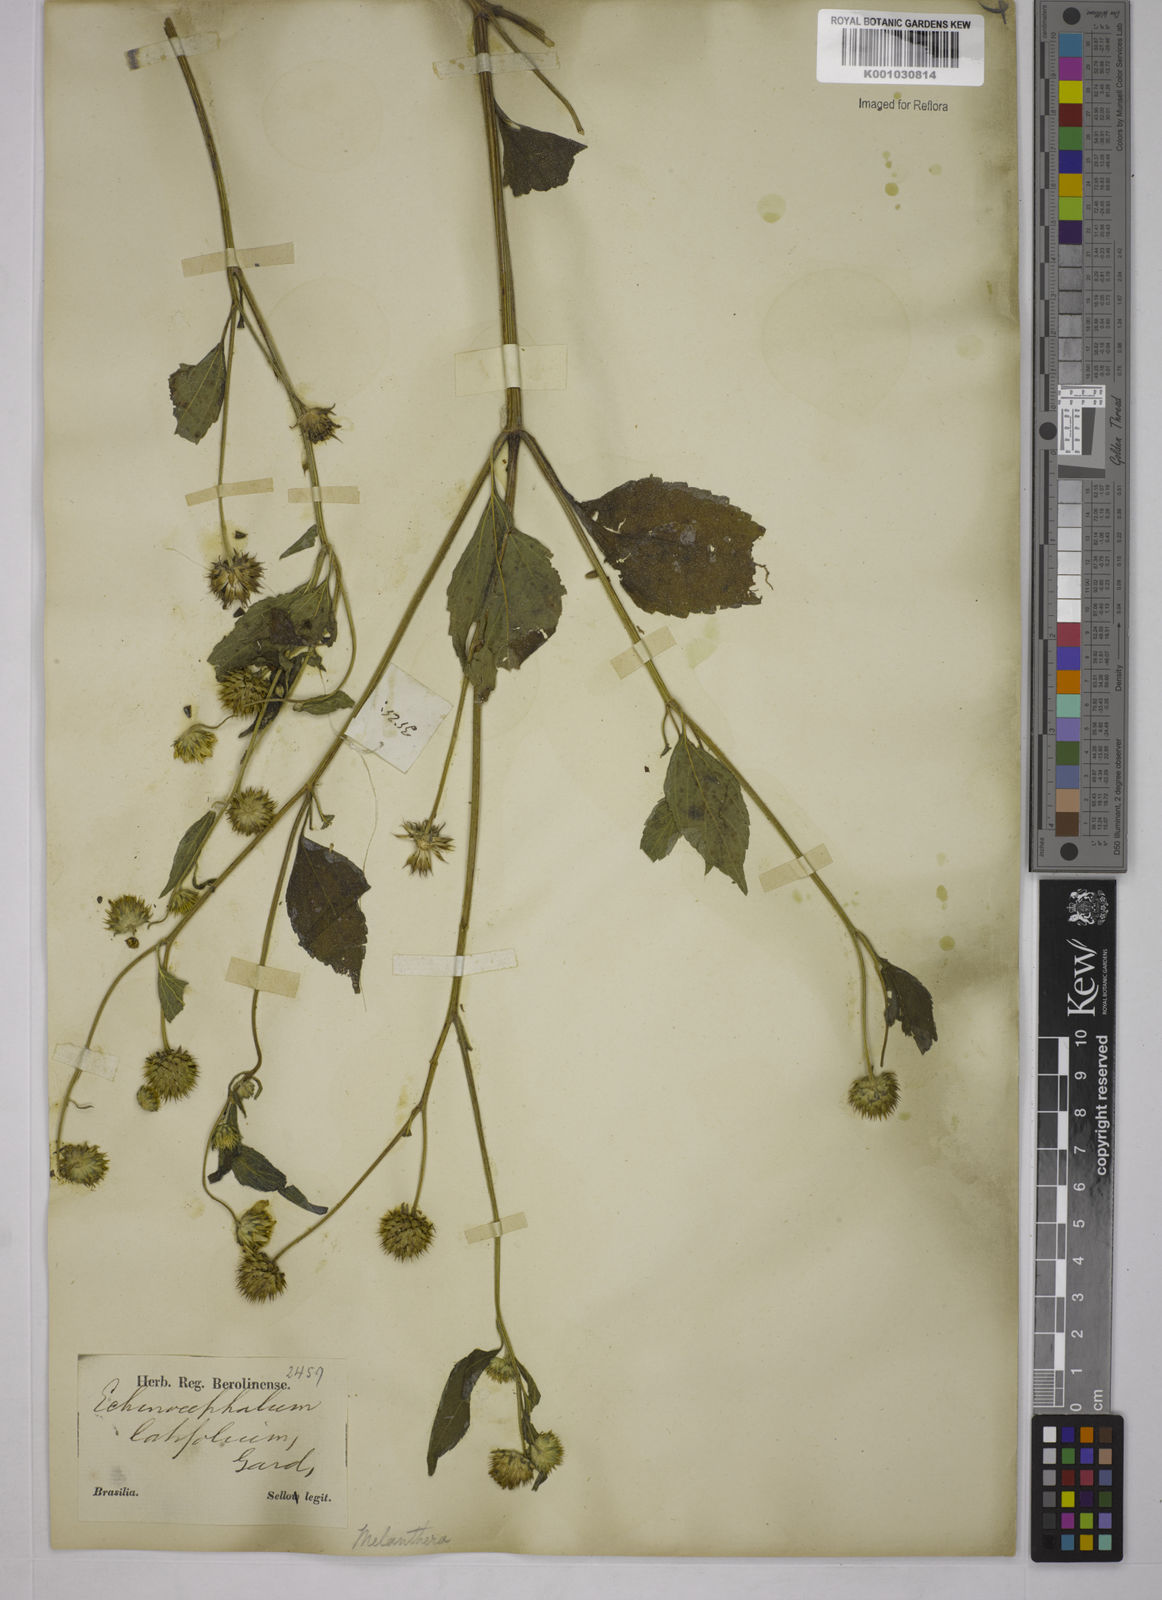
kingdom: Plantae
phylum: Tracheophyta
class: Magnoliopsida
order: Asterales
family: Asteraceae
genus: Echinocephalum
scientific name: Echinocephalum latifolium
